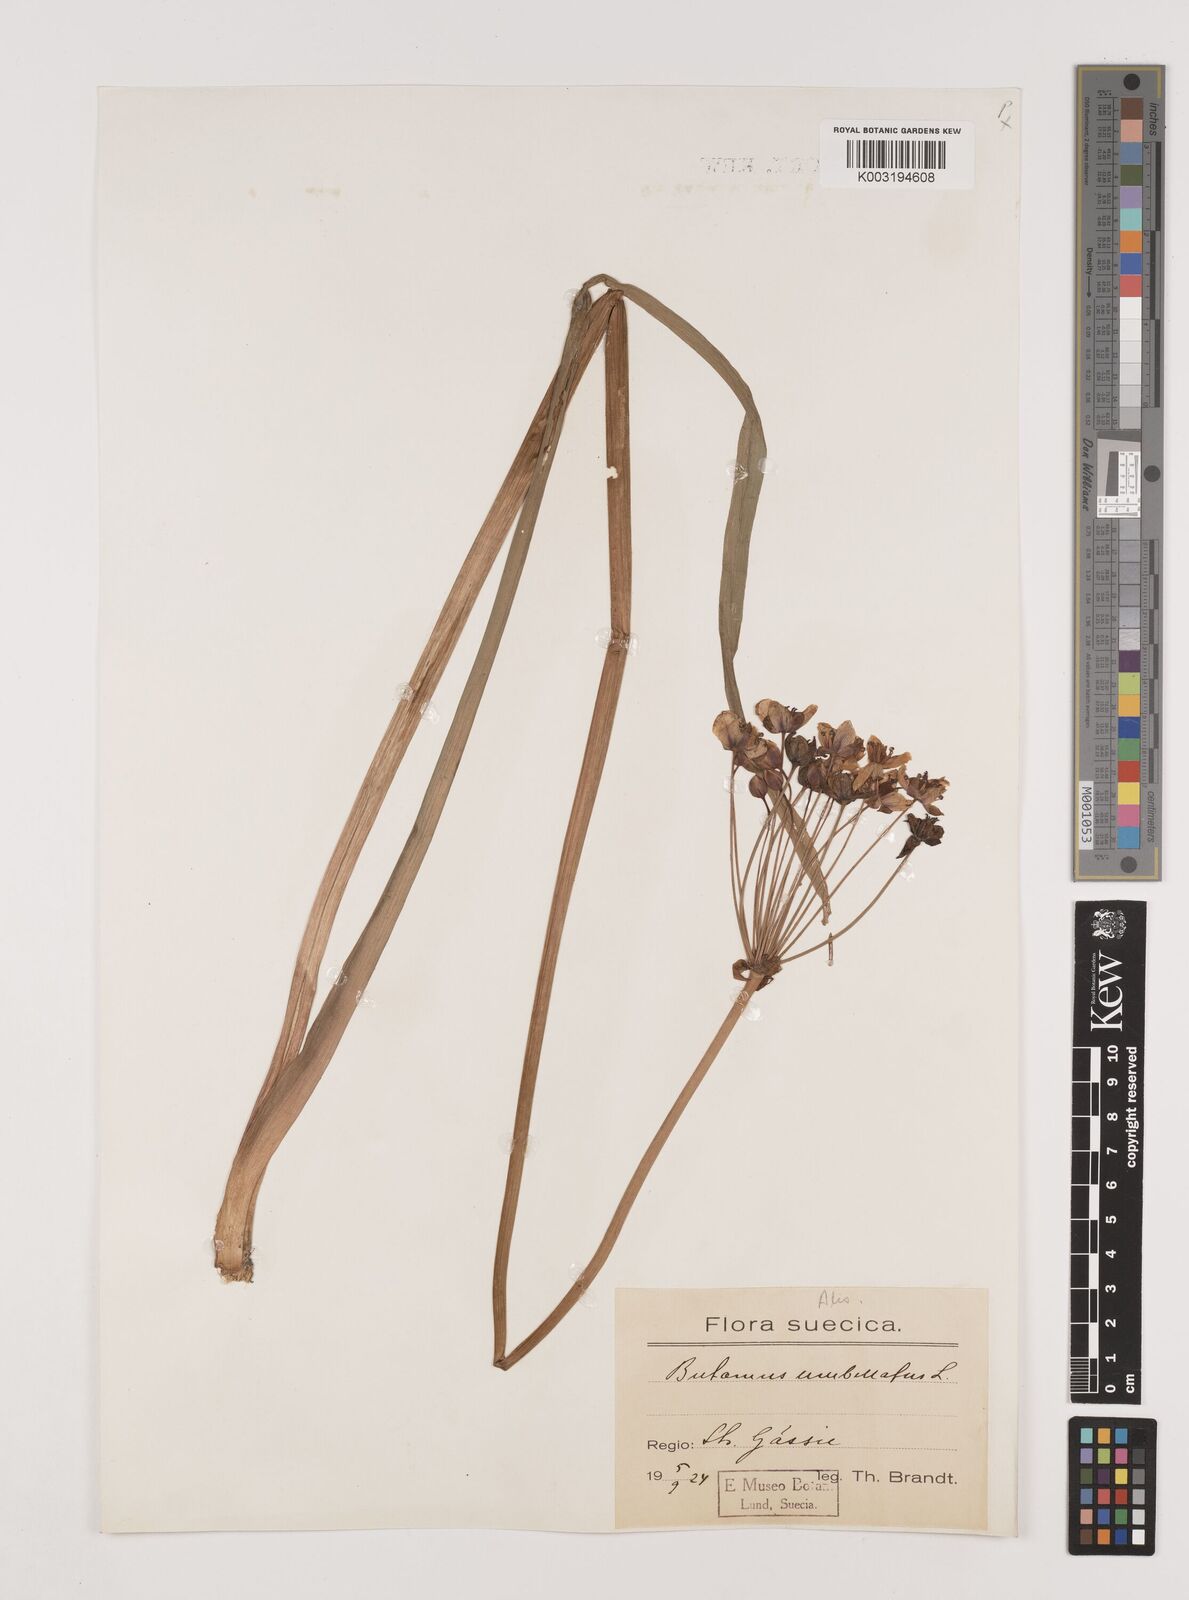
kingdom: Plantae
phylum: Tracheophyta
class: Liliopsida
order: Alismatales
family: Butomaceae
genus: Butomus
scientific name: Butomus umbellatus
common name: Flowering-rush
